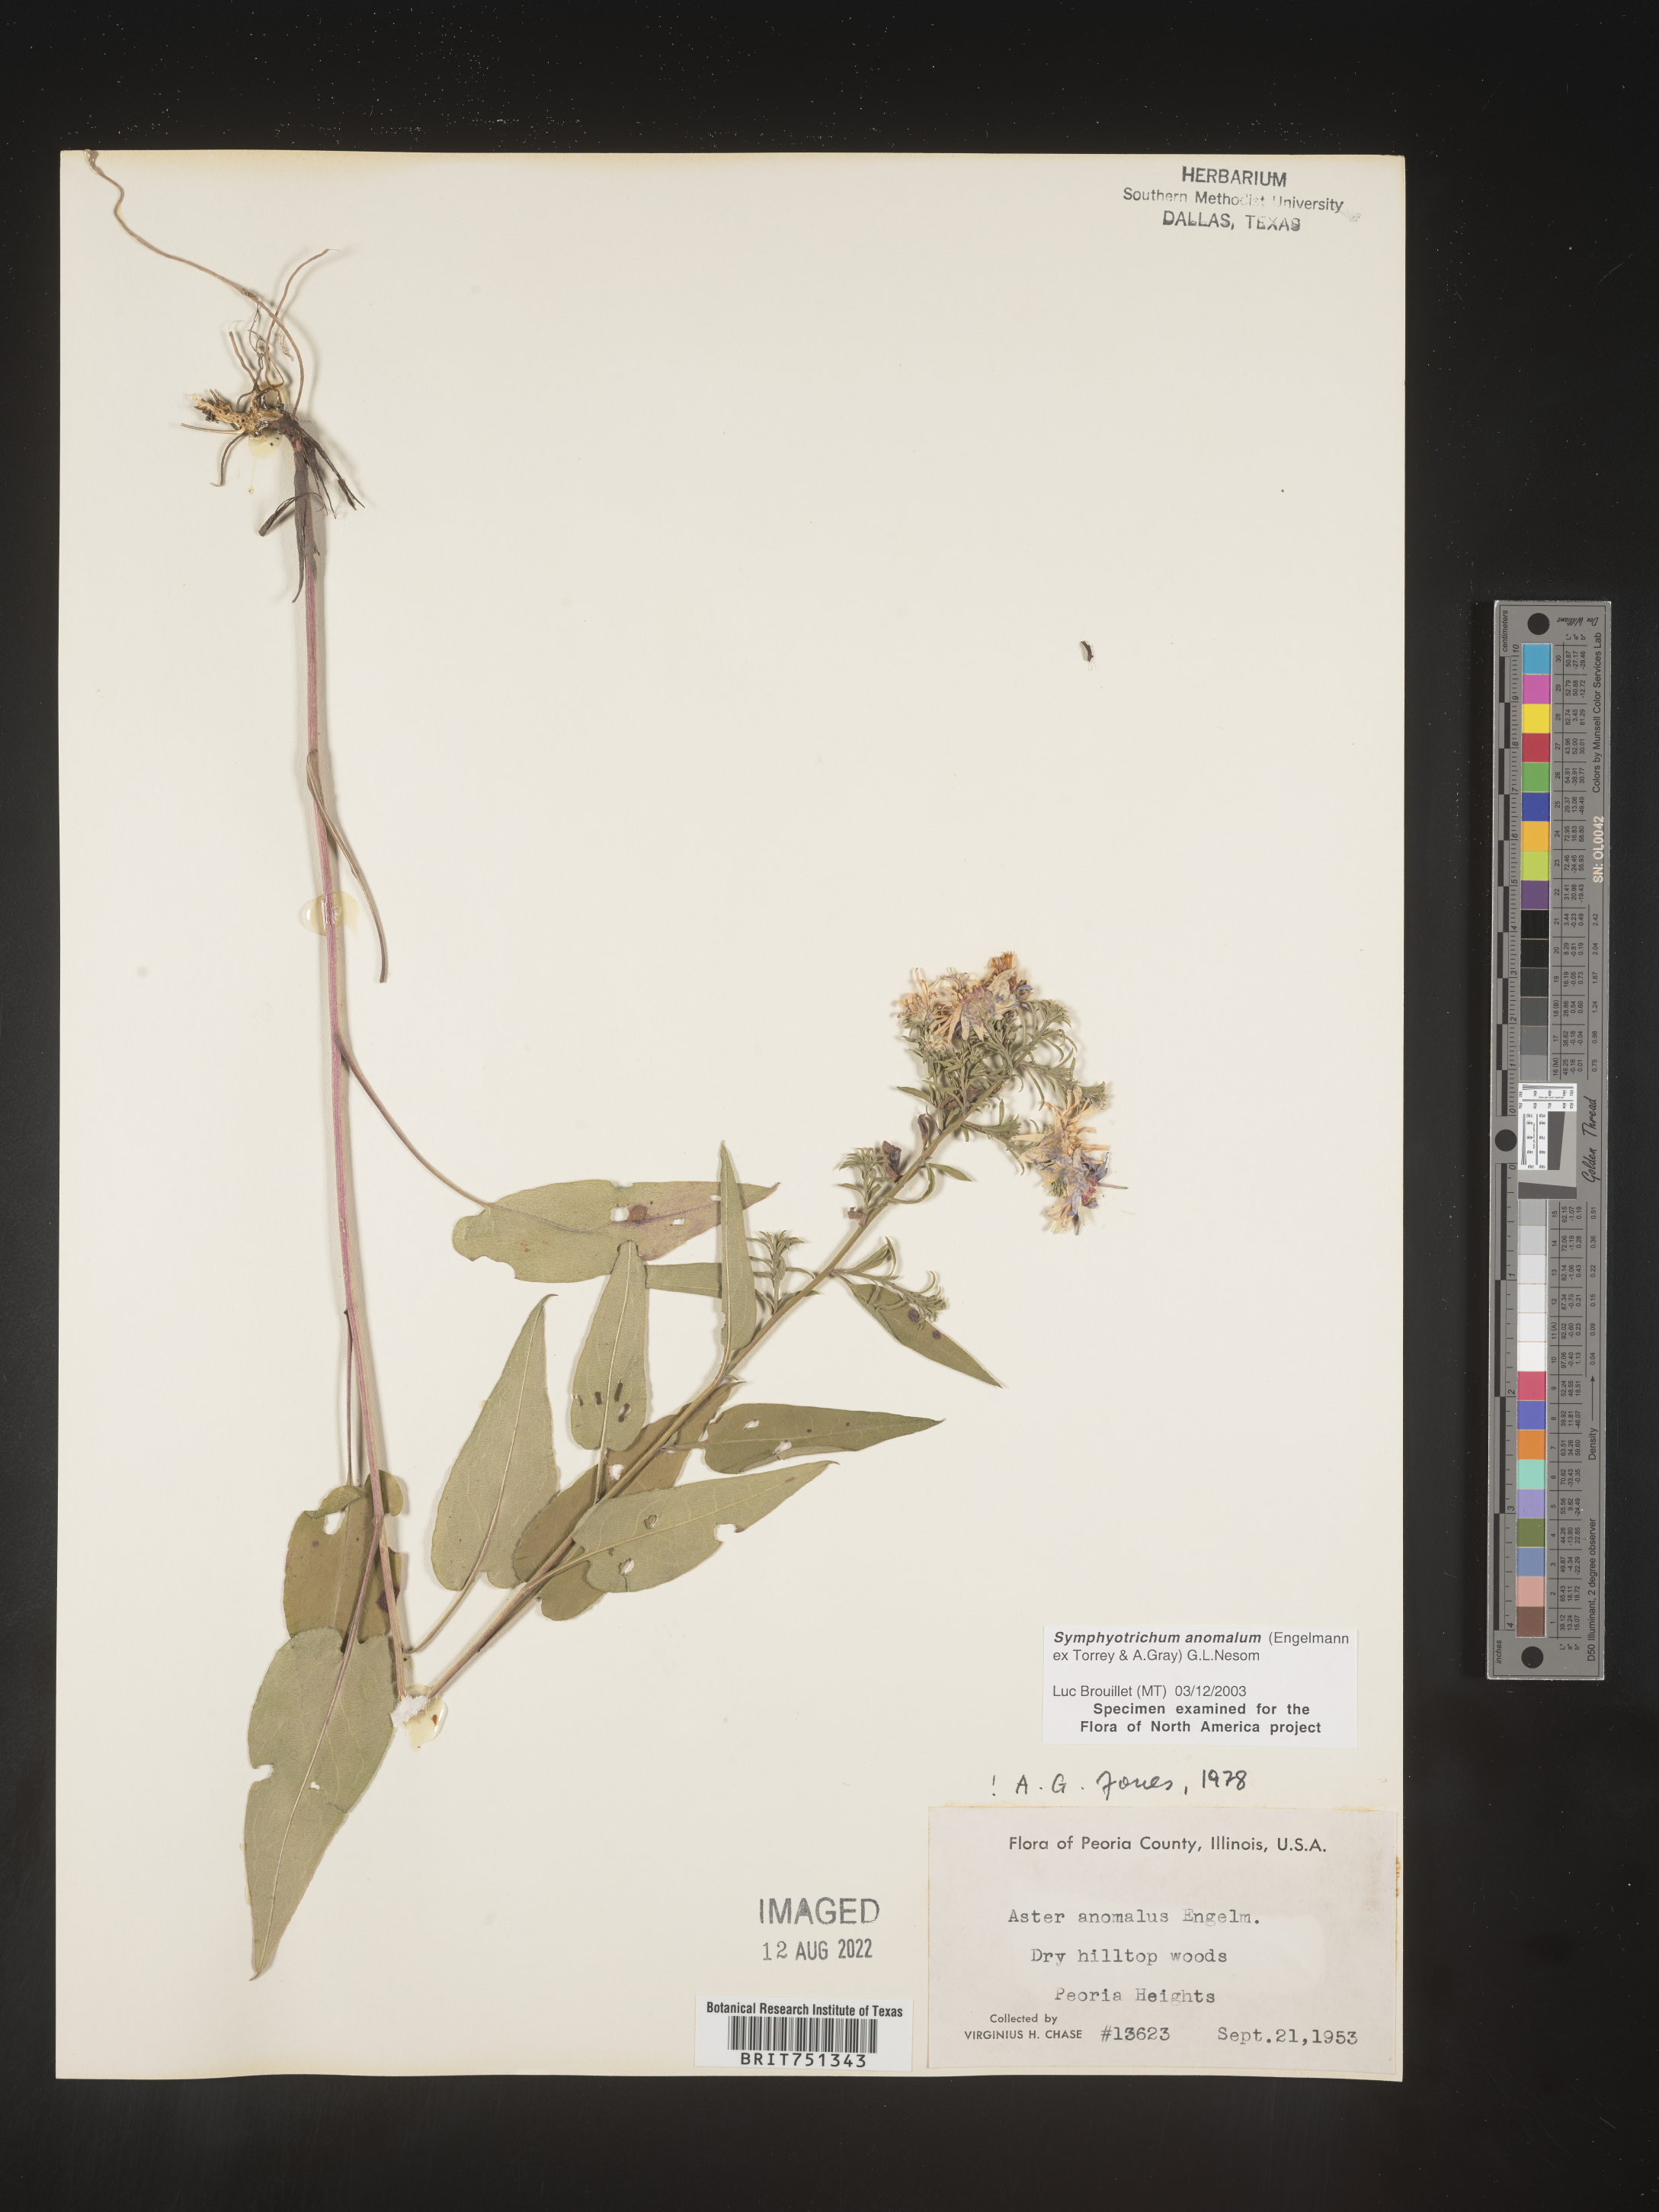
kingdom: Plantae
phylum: Tracheophyta
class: Magnoliopsida
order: Asterales
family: Asteraceae
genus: Symphyotrichum
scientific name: Symphyotrichum anomalum
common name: Many-ray aster
